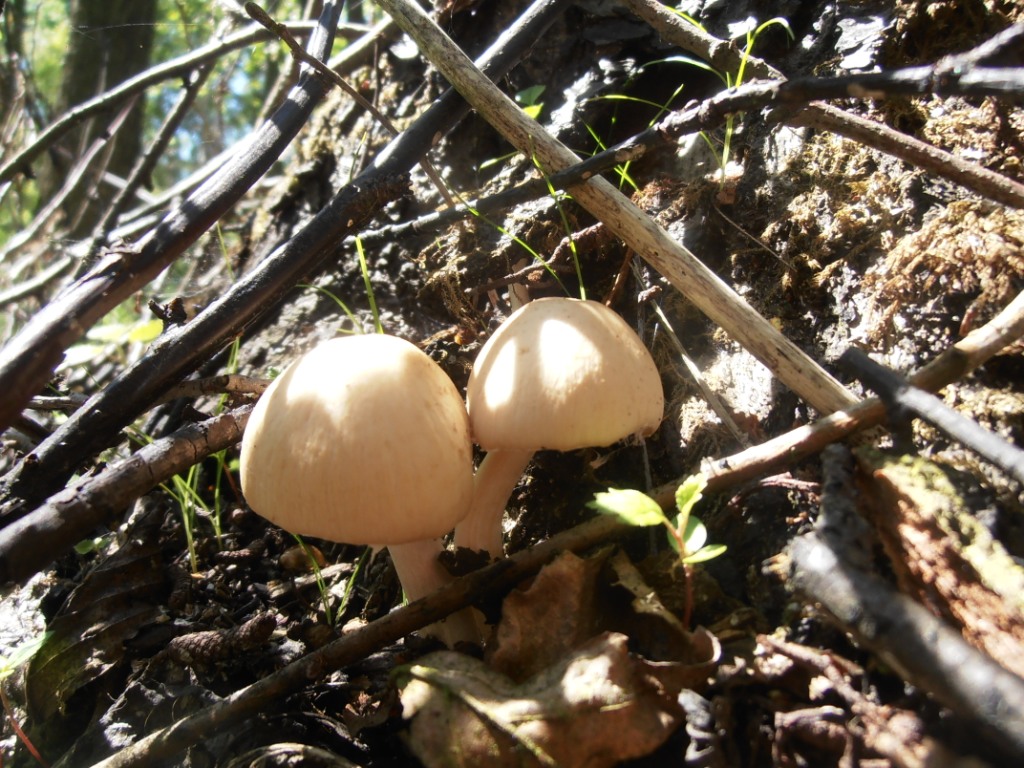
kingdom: Fungi
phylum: Basidiomycota
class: Agaricomycetes
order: Agaricales
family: Psathyrellaceae
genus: Candolleomyces
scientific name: Candolleomyces candolleanus
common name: Candolles mørkhat
